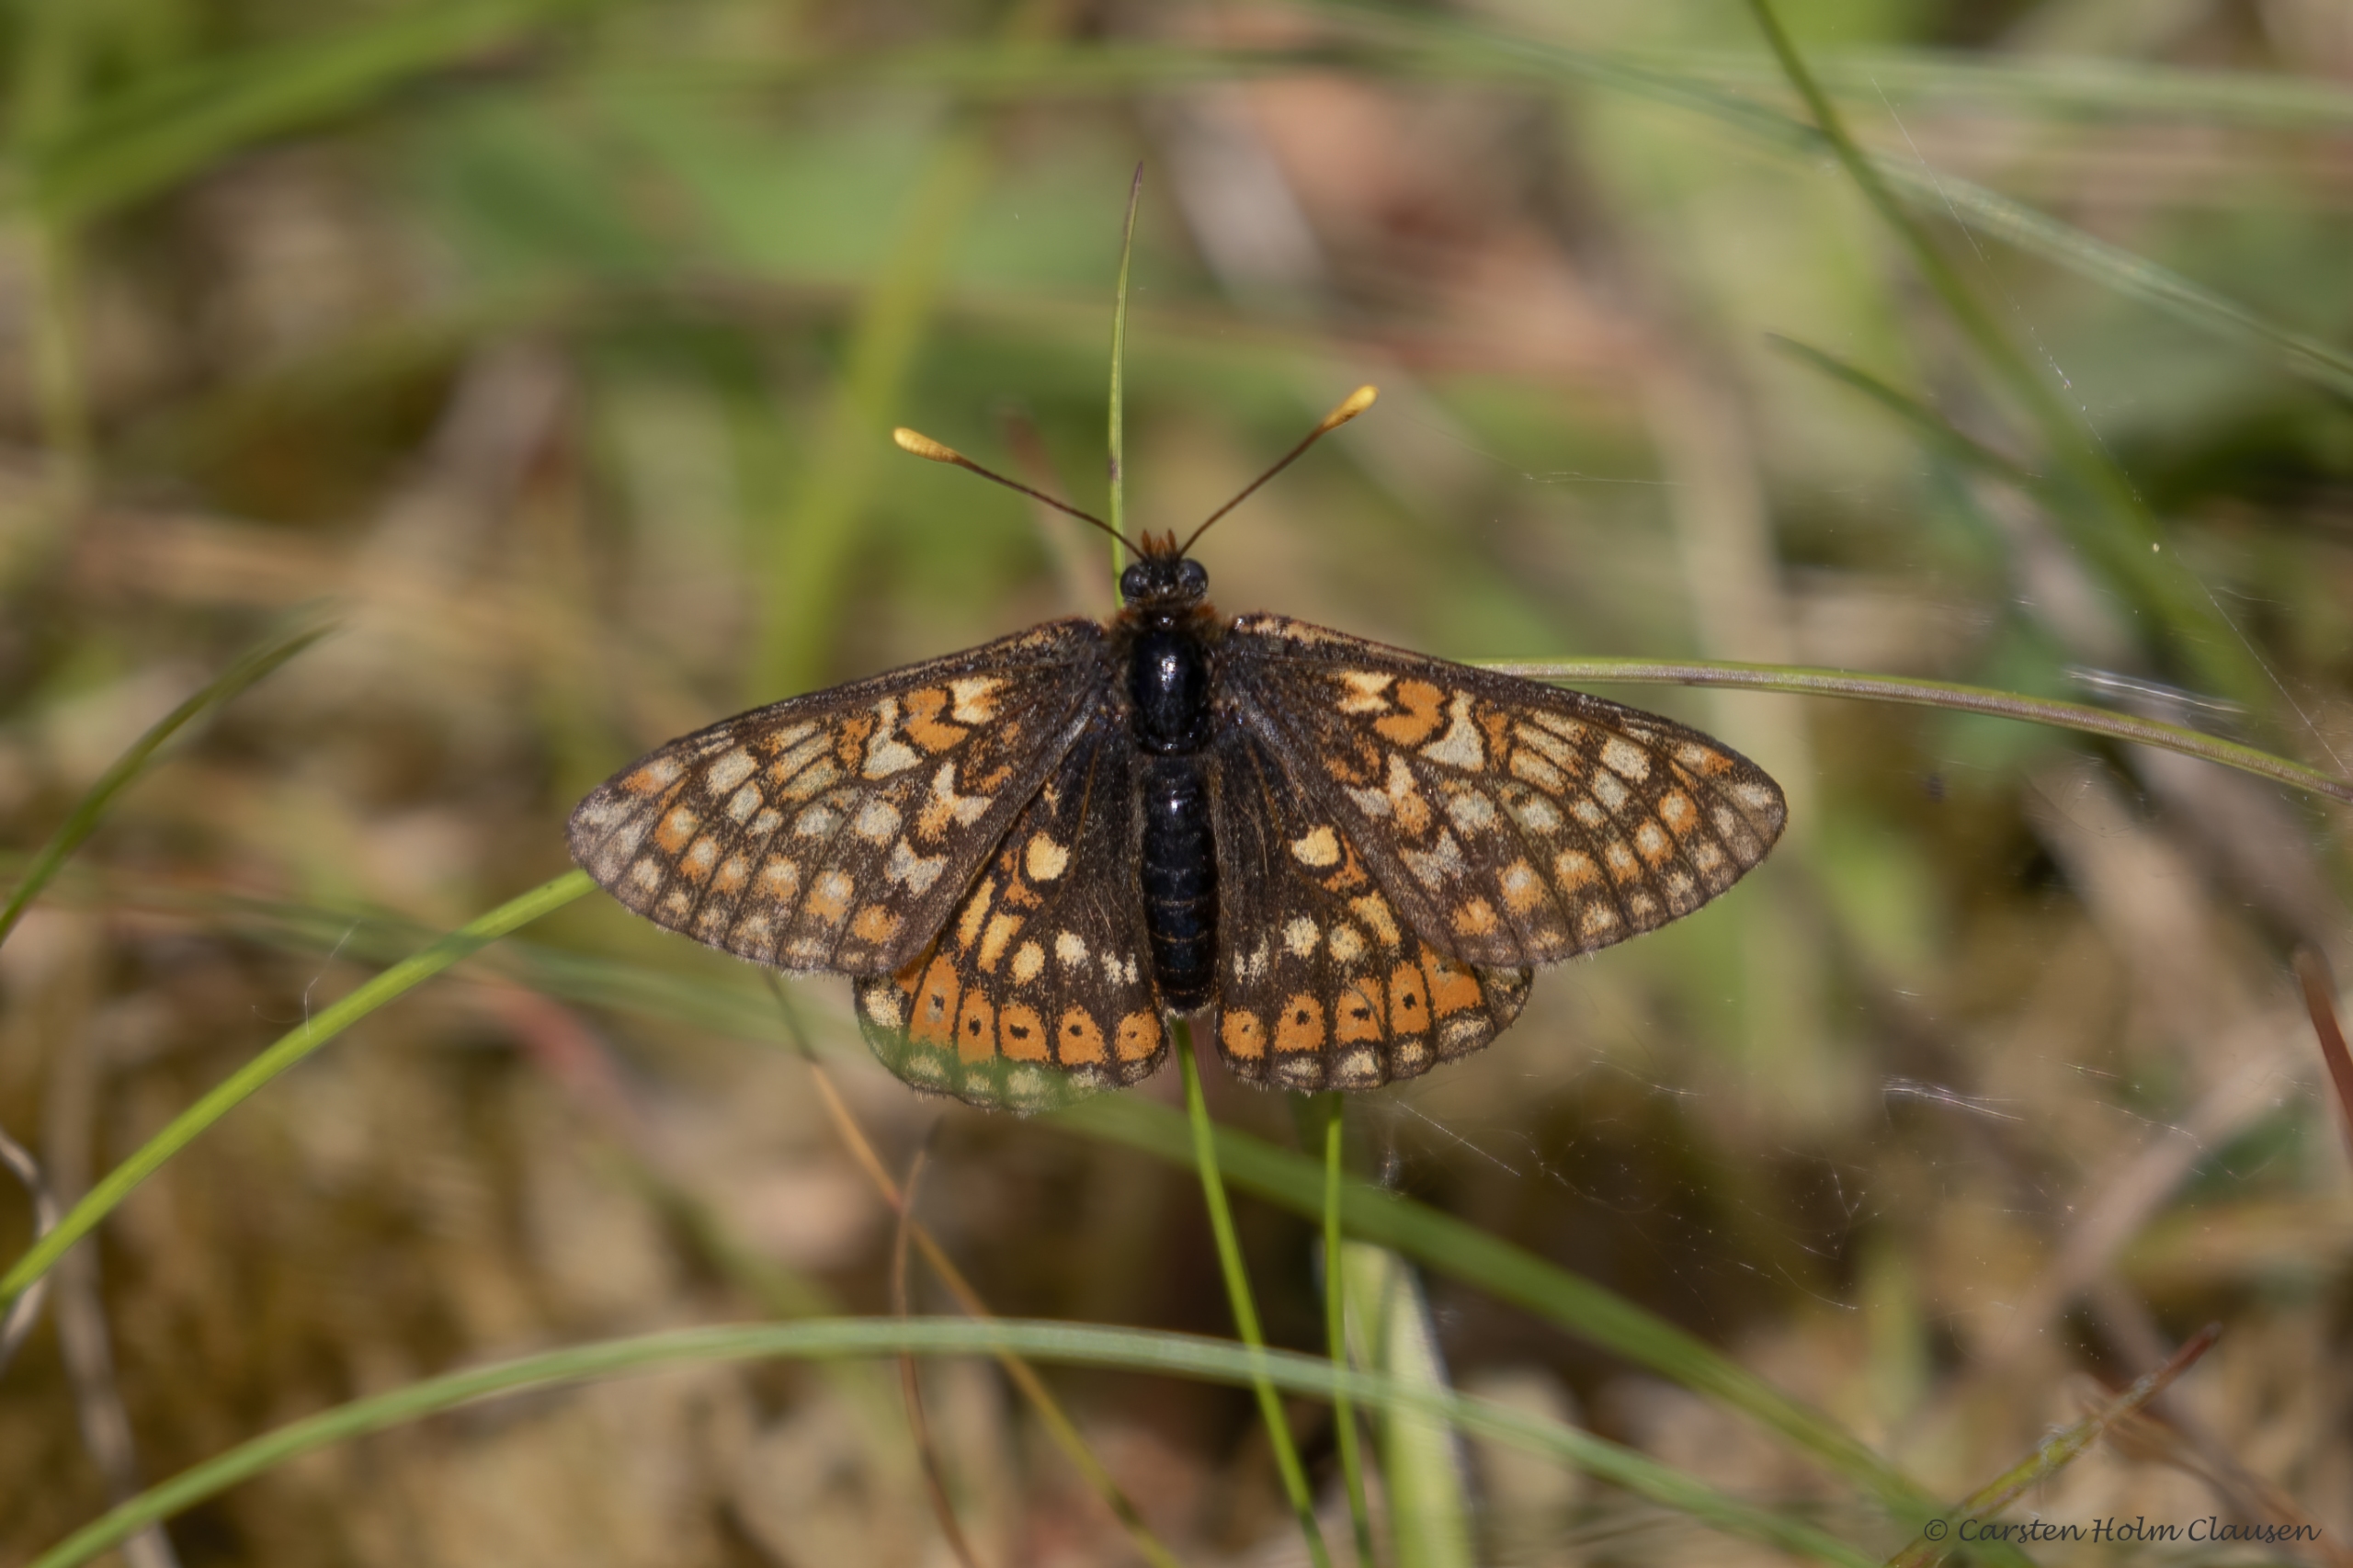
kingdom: Animalia
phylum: Arthropoda
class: Insecta
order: Lepidoptera
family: Nymphalidae
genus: Euphydryas
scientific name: Euphydryas aurinia
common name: Hedepletvinge
